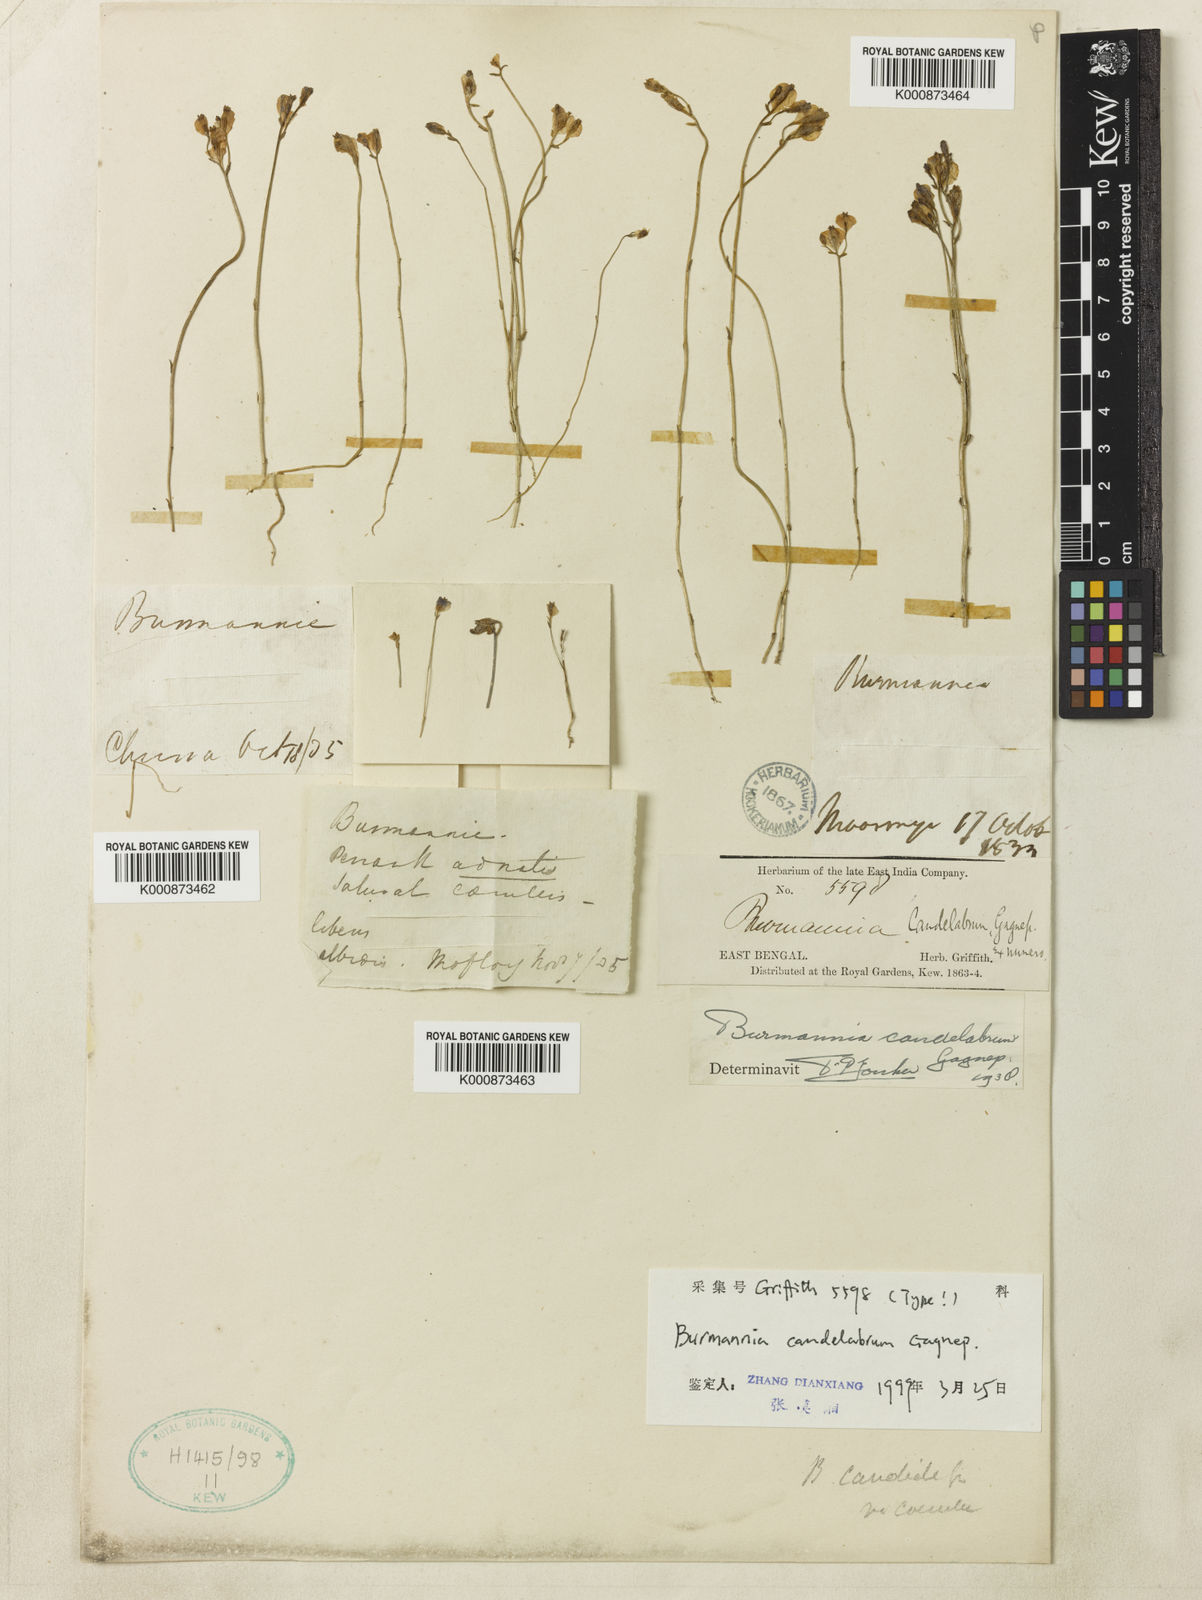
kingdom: Plantae
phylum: Tracheophyta
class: Liliopsida
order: Dioscoreales
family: Burmanniaceae
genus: Burmannia
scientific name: Burmannia candelabrum
